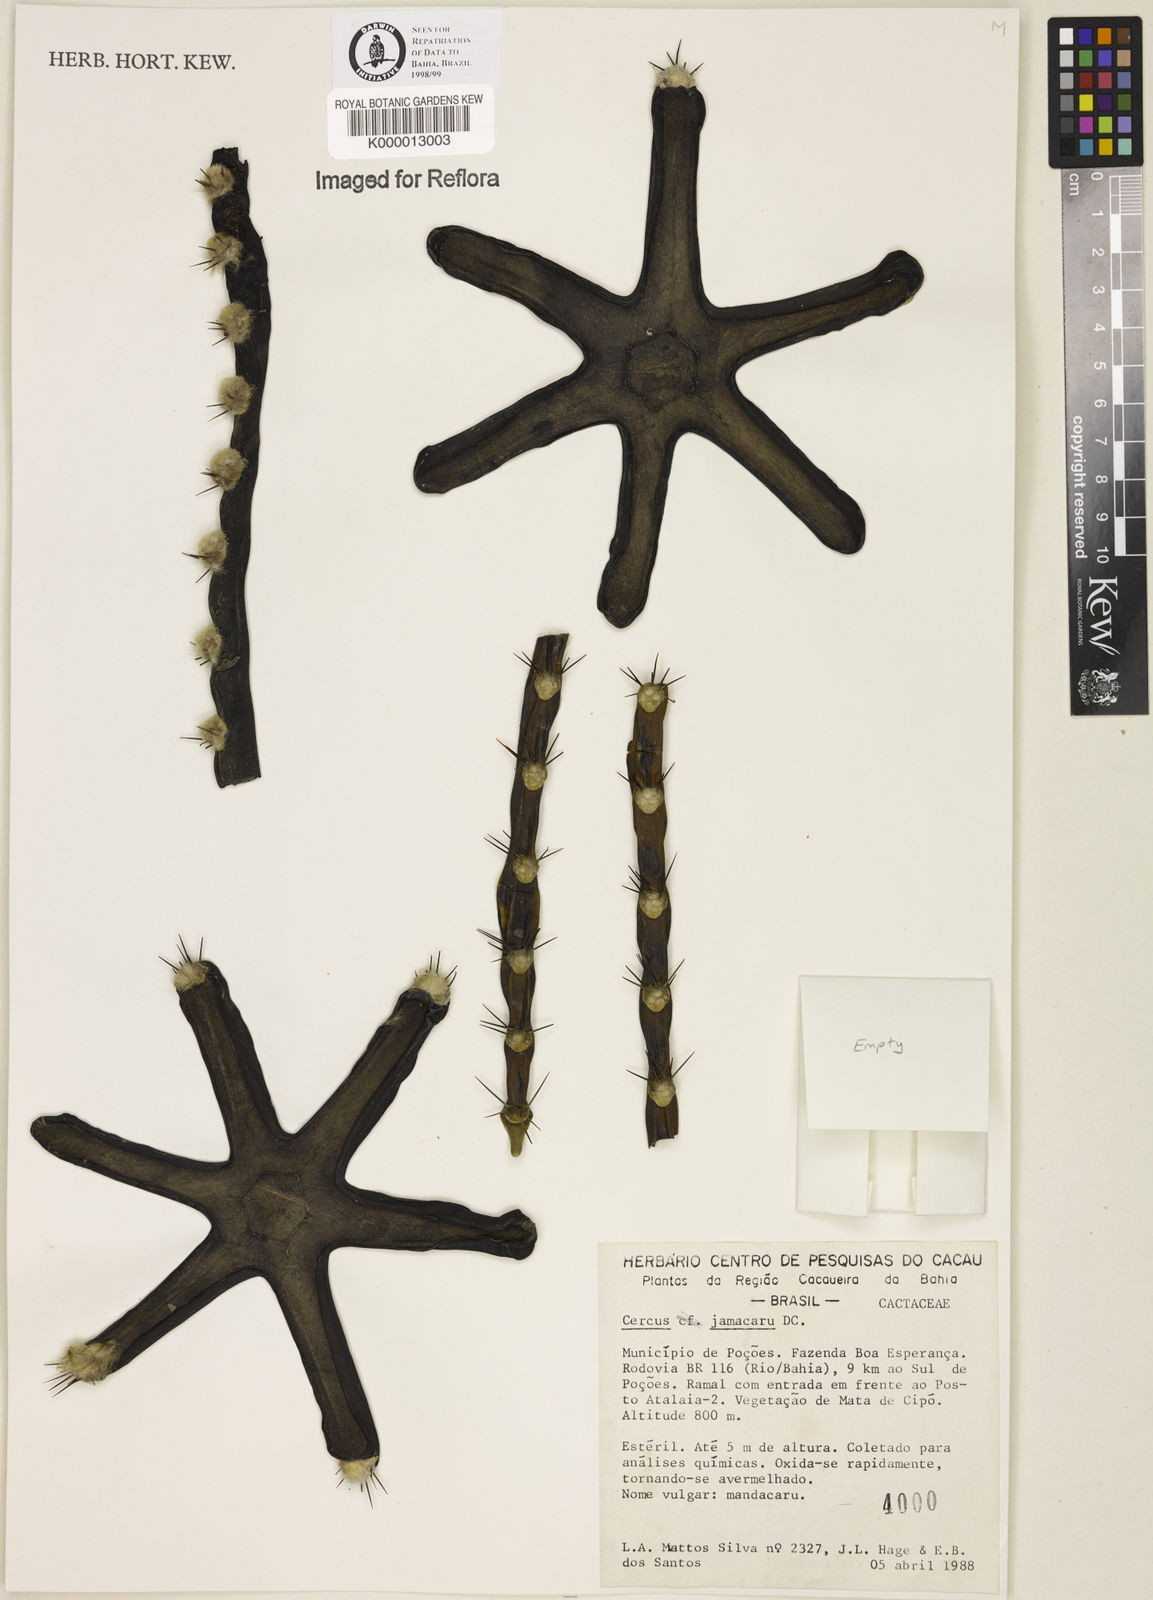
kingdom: Plantae
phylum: Tracheophyta
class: Magnoliopsida
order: Caryophyllales
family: Cactaceae
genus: Cereus
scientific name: Cereus jamacaru
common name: Queen-of-the-night
